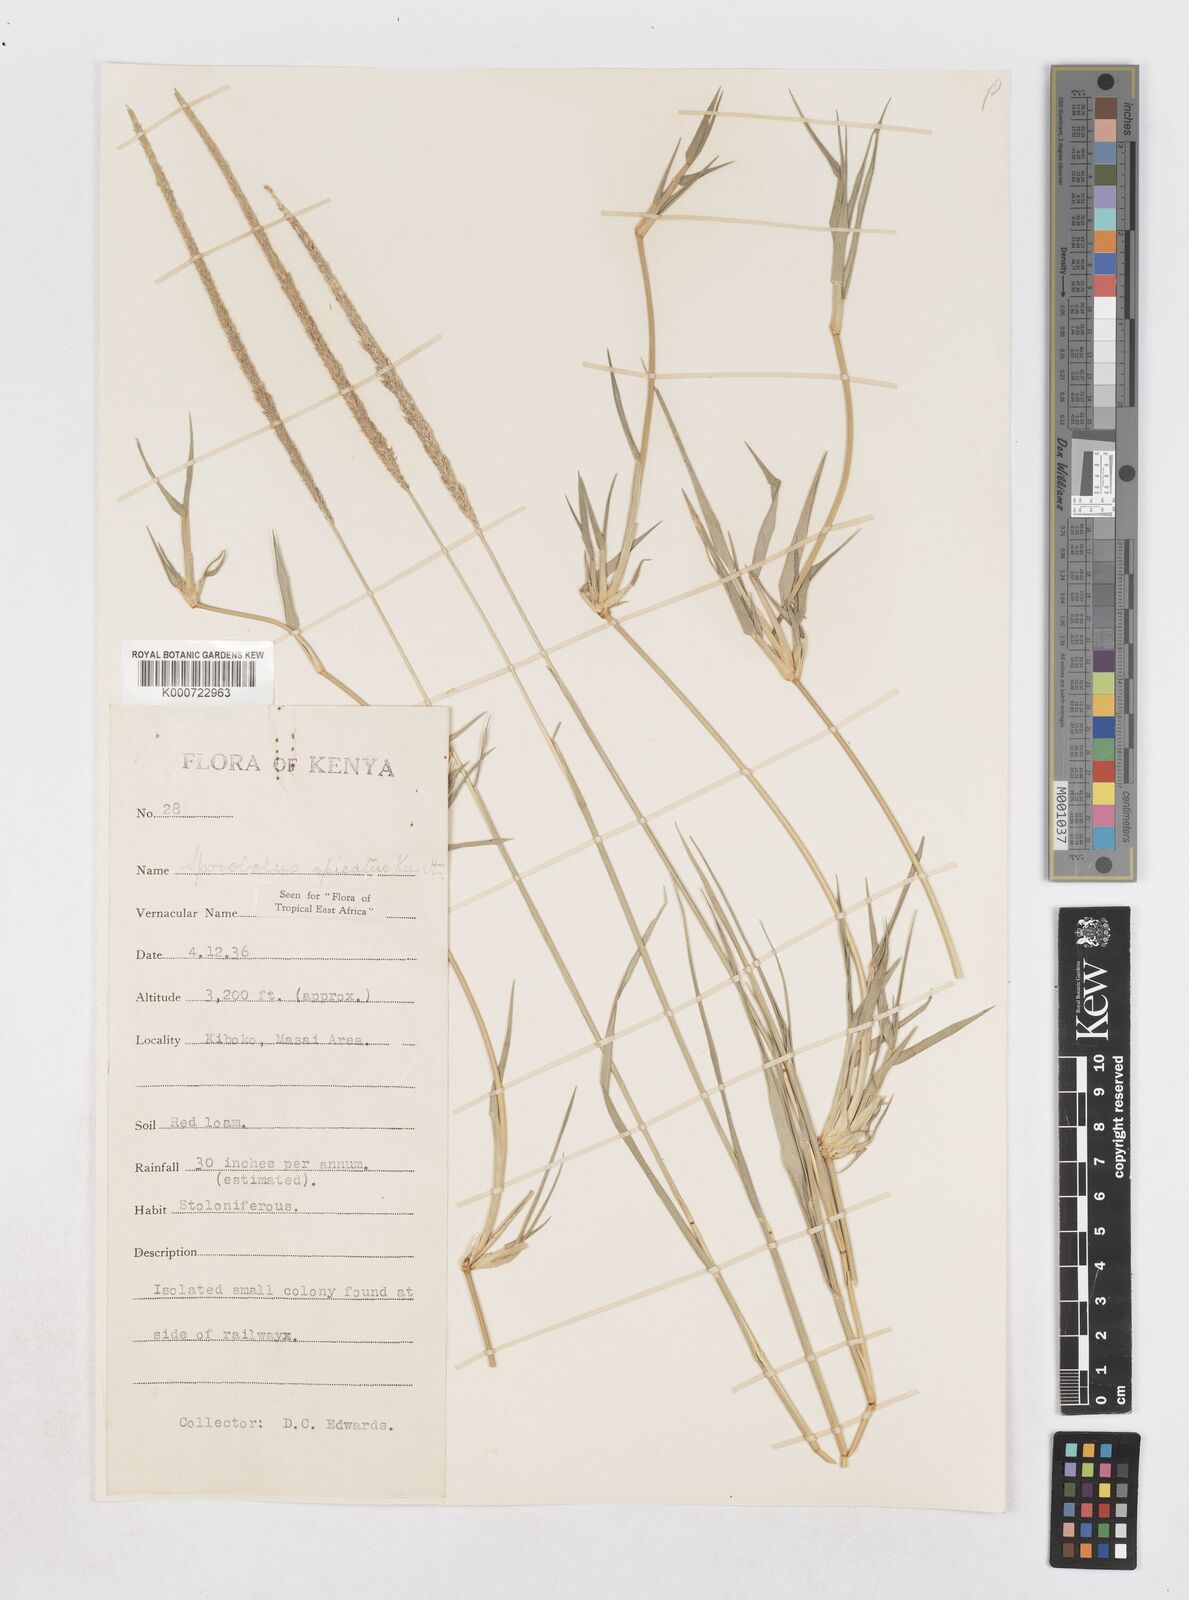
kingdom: Plantae
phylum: Tracheophyta
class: Liliopsida
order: Poales
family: Poaceae
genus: Sporobolus
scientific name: Sporobolus spicatus
